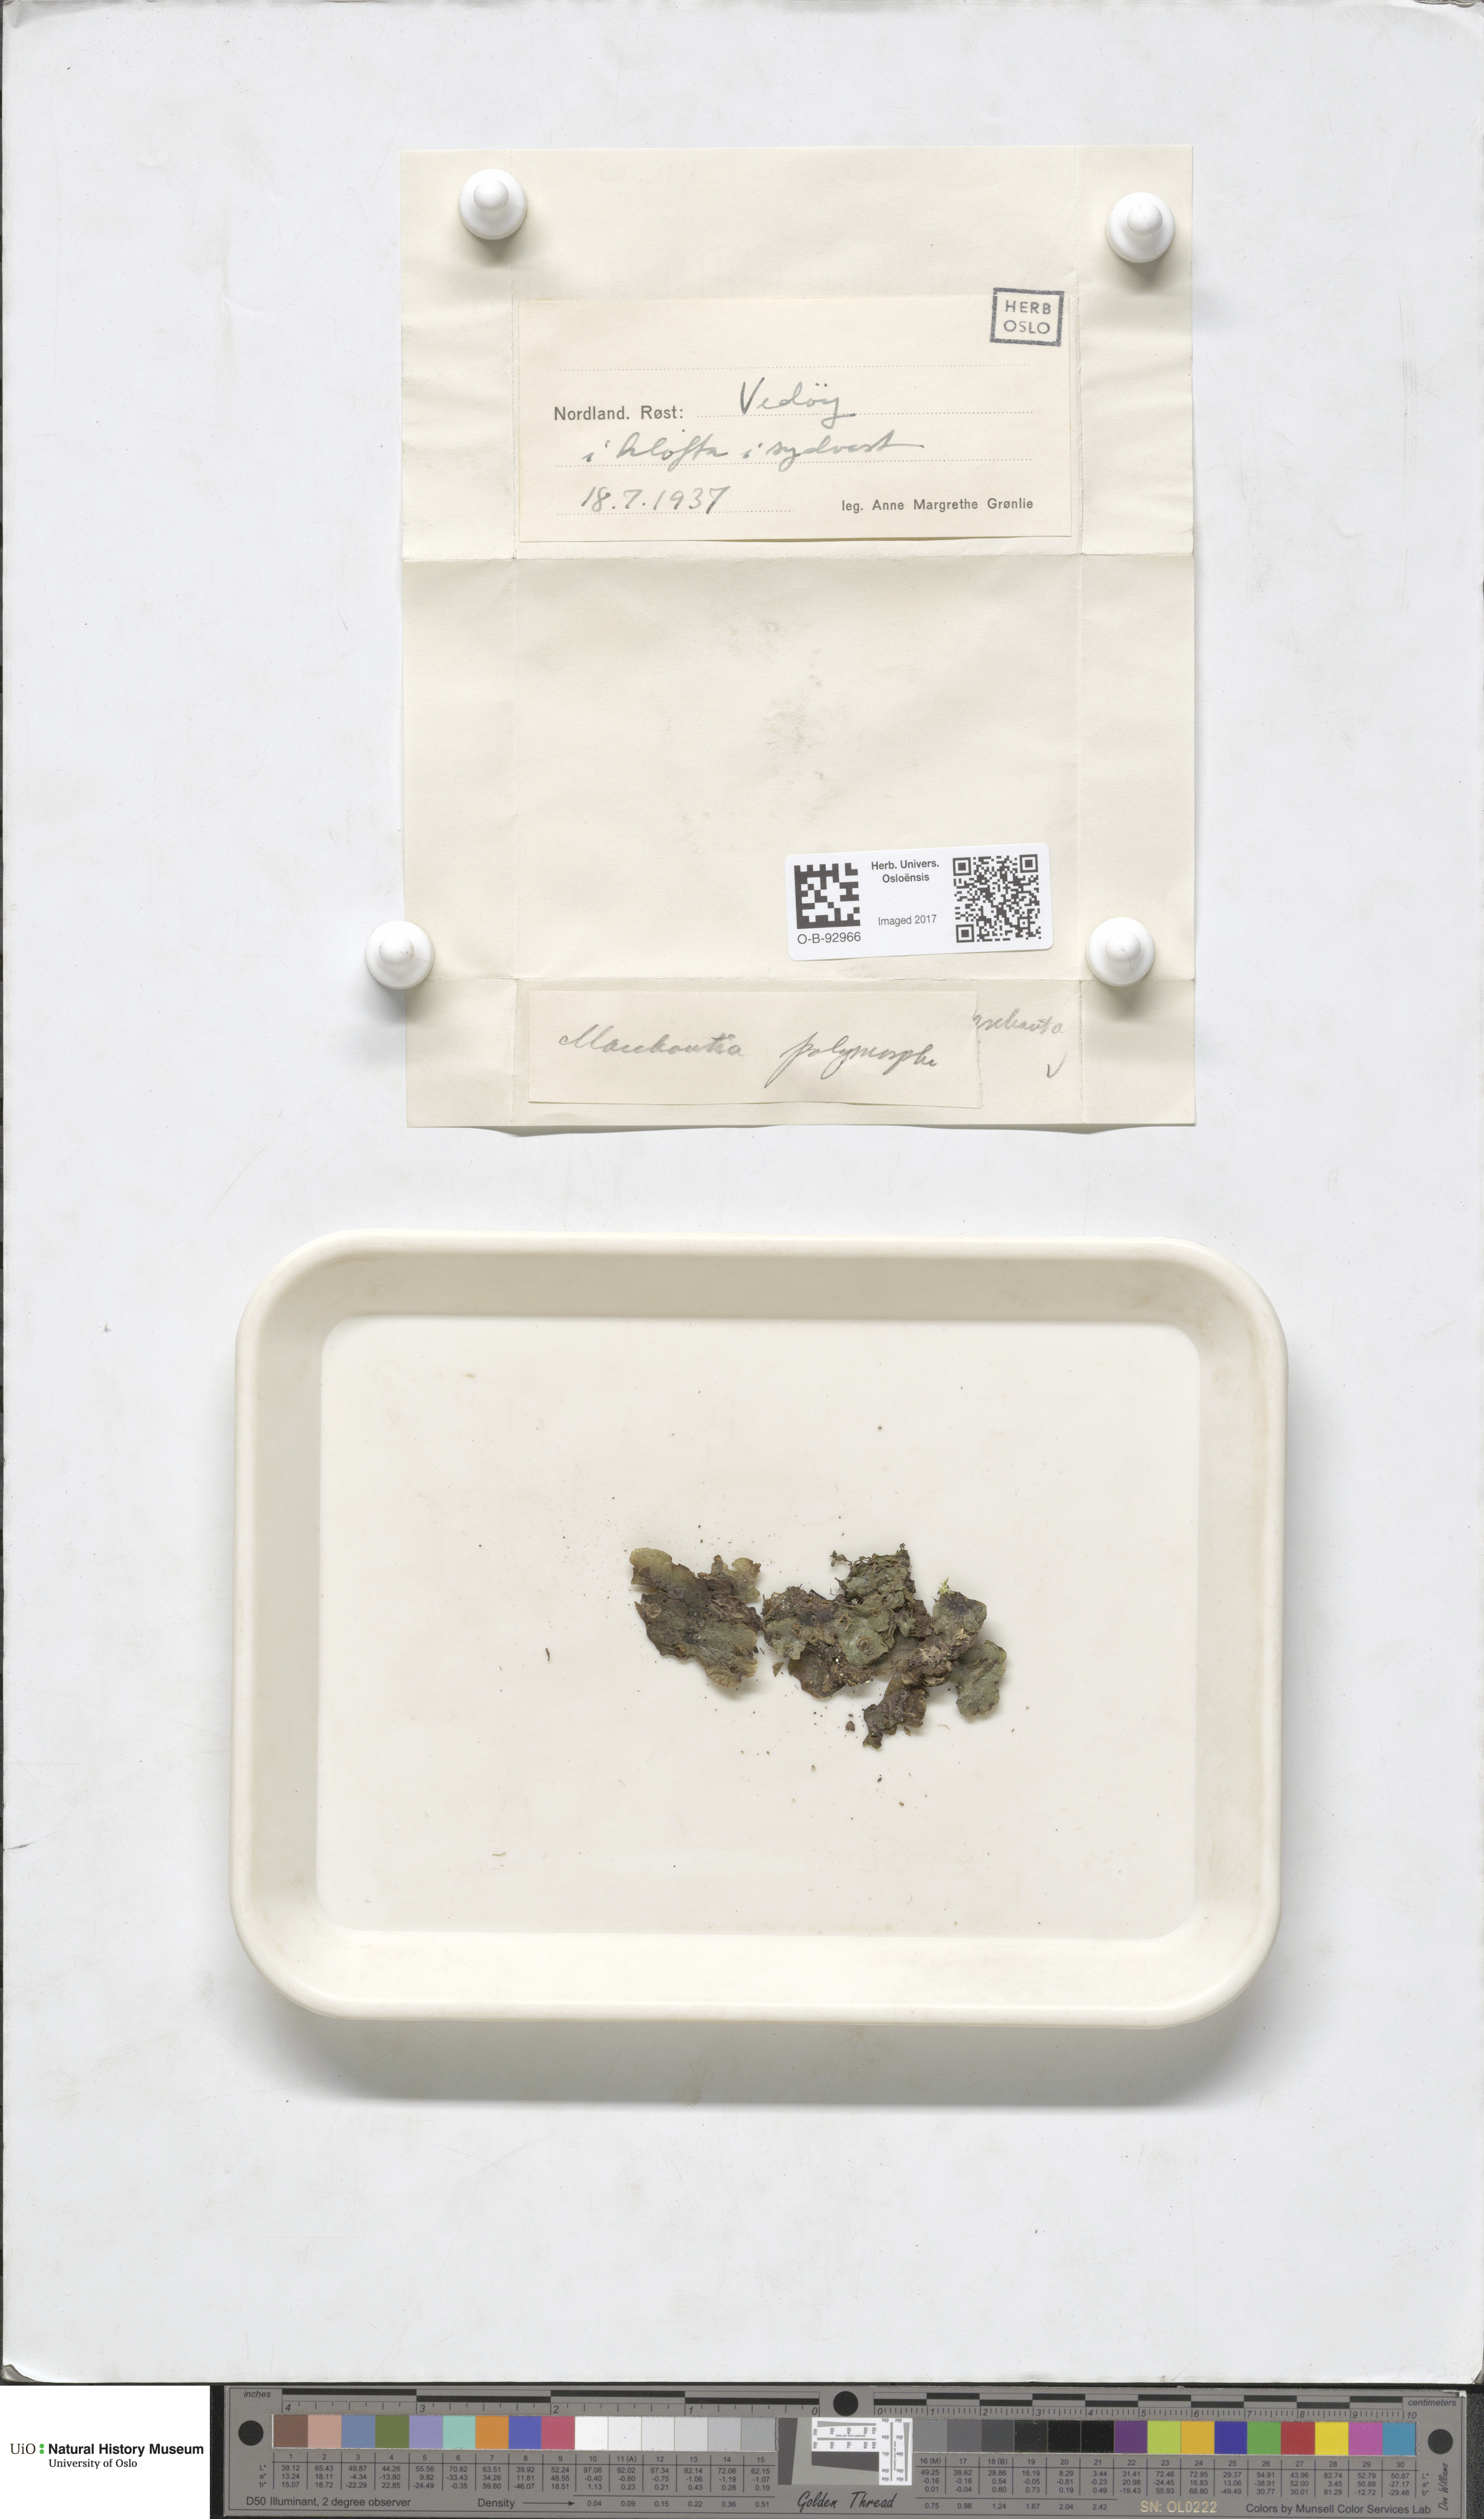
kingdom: Plantae
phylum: Marchantiophyta
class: Marchantiopsida
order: Marchantiales
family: Marchantiaceae
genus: Marchantia
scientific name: Marchantia polymorpha
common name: Common liverwort
